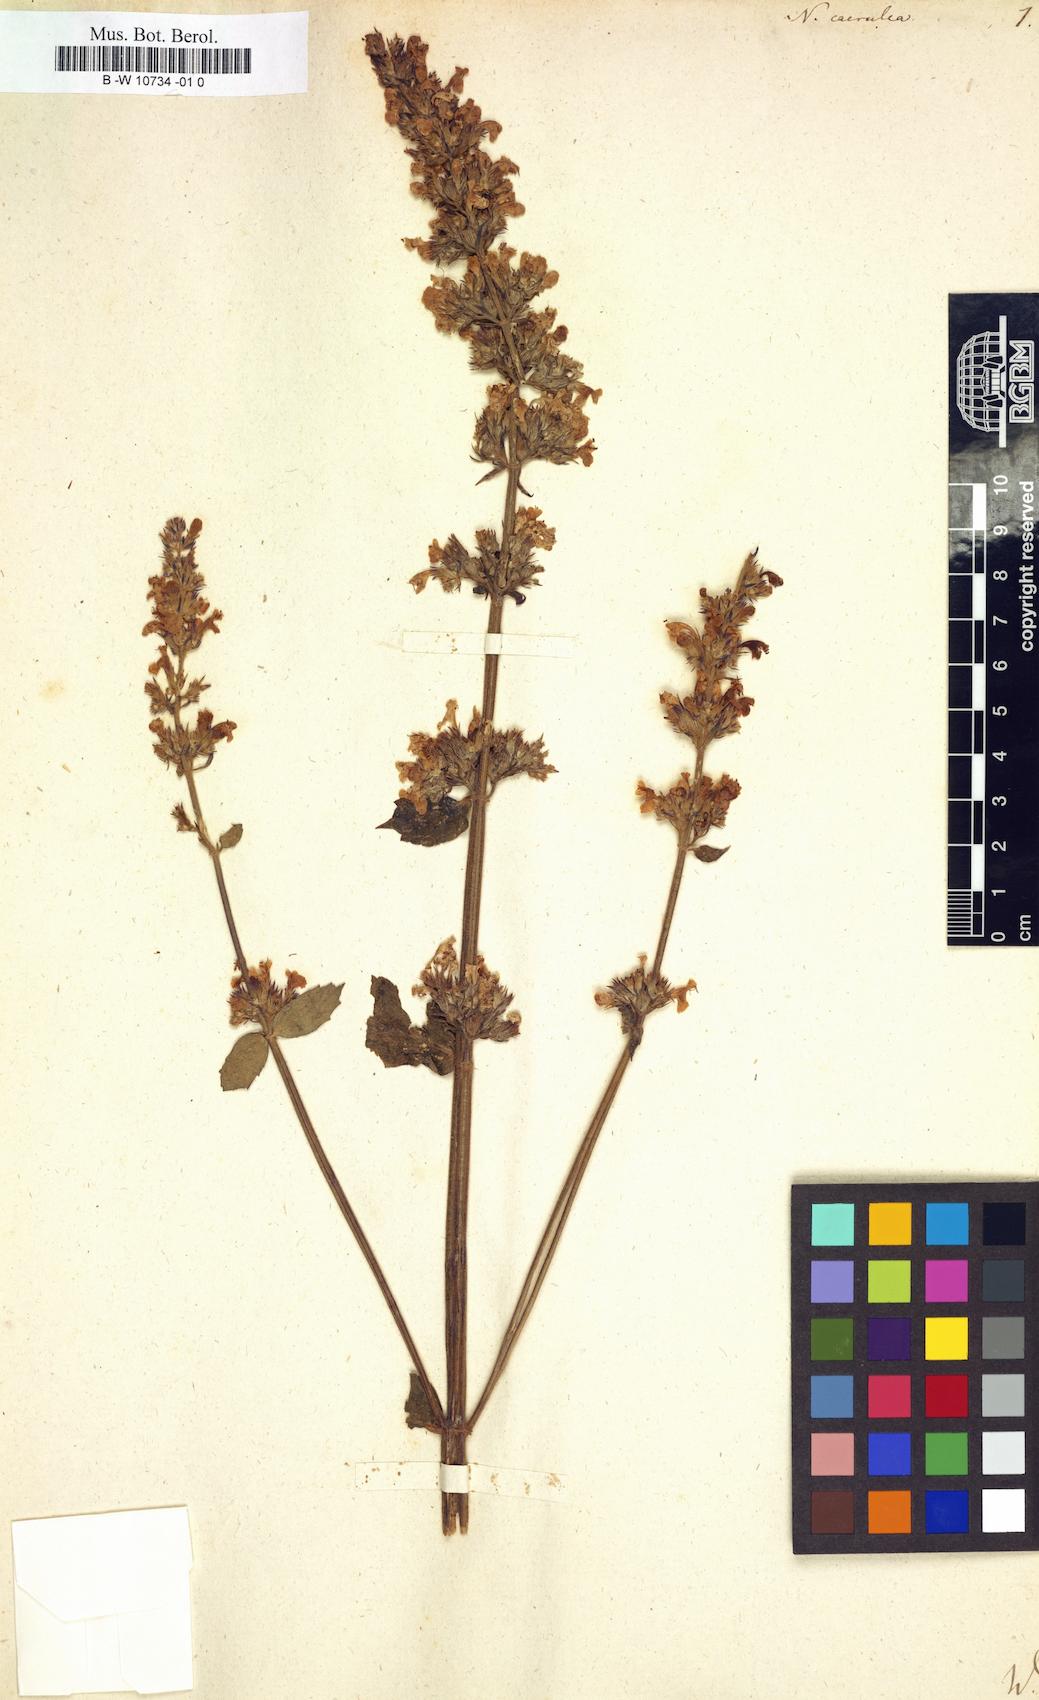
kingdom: Plantae
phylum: Tracheophyta
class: Magnoliopsida
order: Lamiales
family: Lamiaceae
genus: Nepeta
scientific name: Nepeta caerulea
